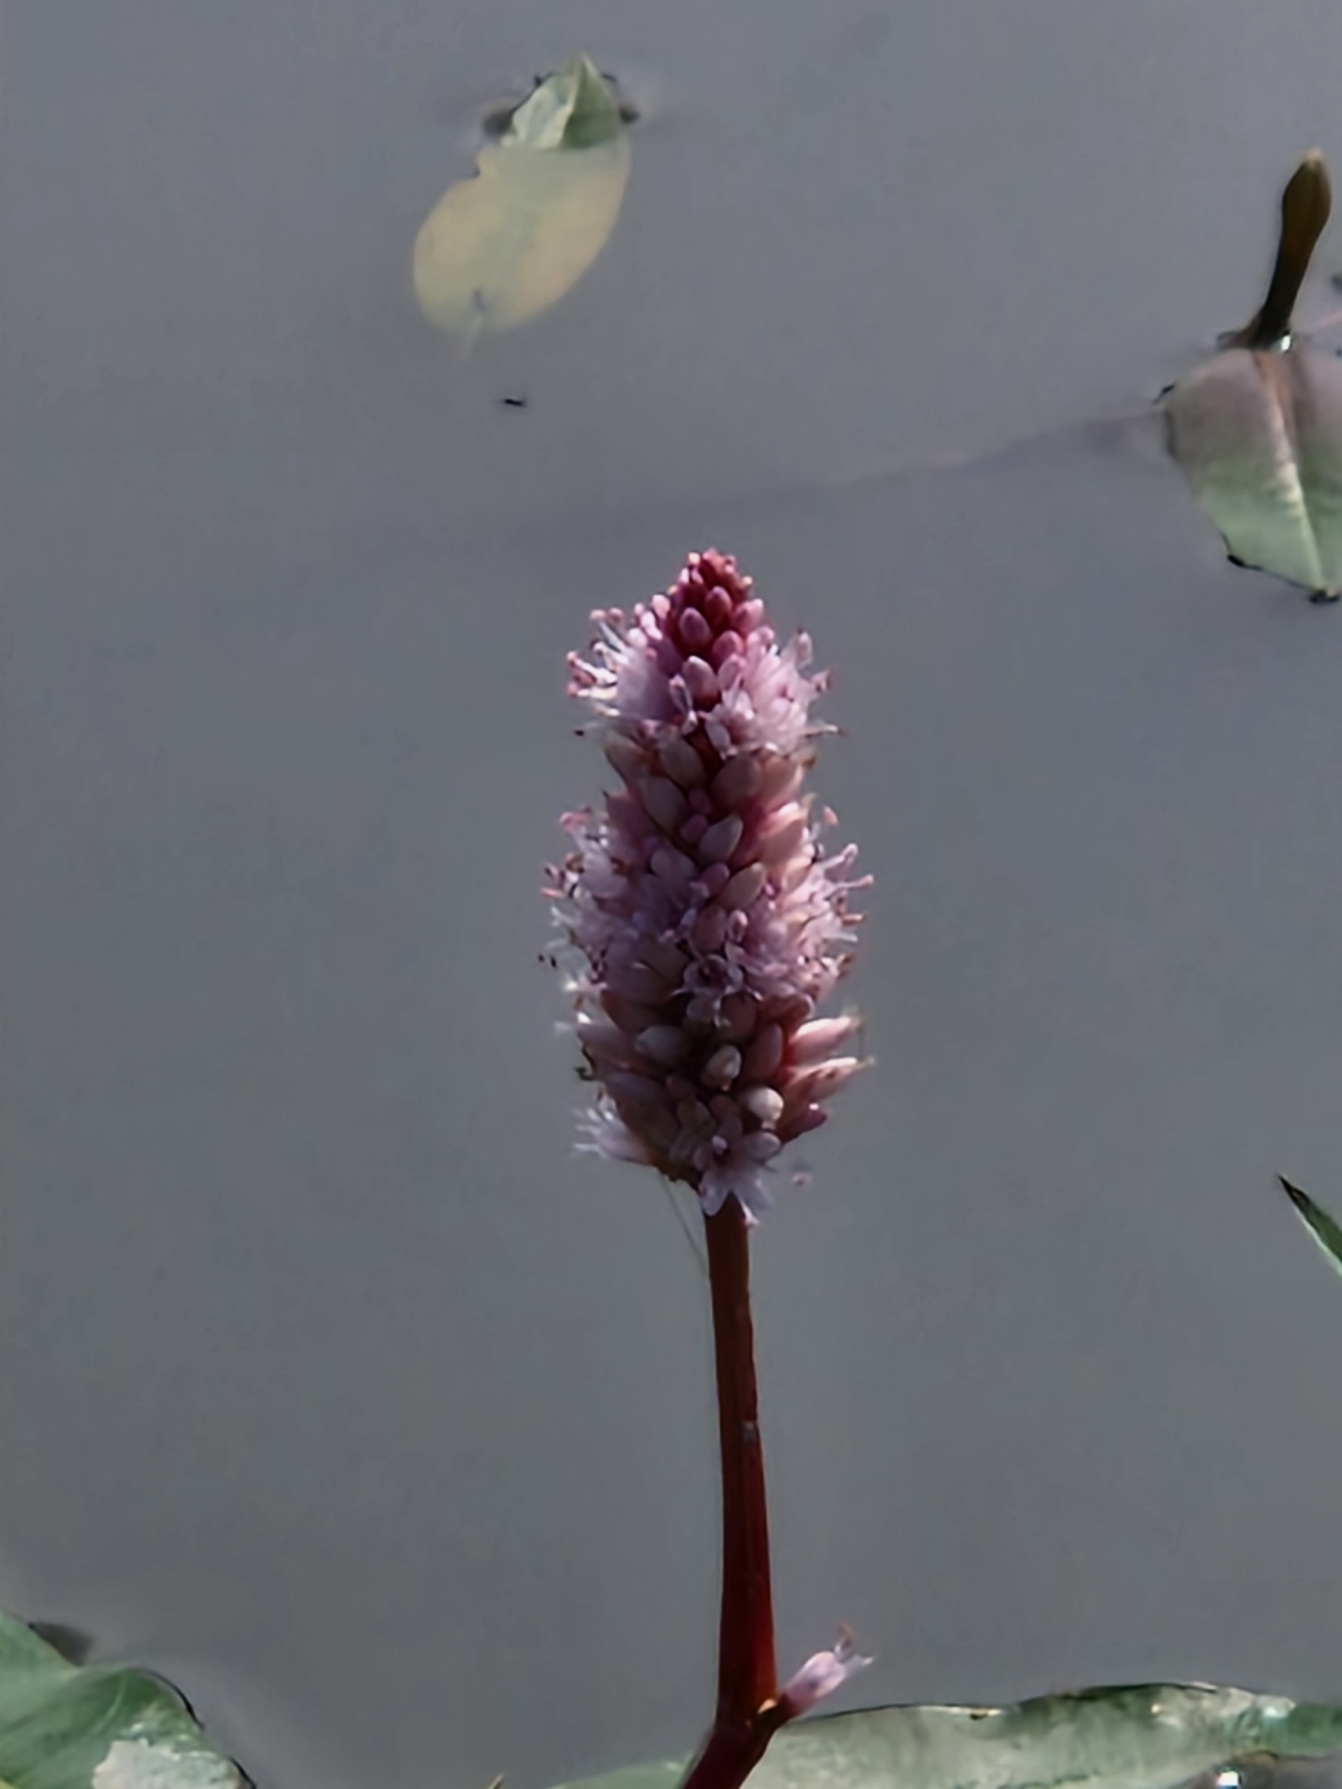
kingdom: Plantae
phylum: Tracheophyta
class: Magnoliopsida
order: Caryophyllales
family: Polygonaceae
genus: Persicaria
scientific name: Persicaria amphibia
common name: Vand-pileurt
